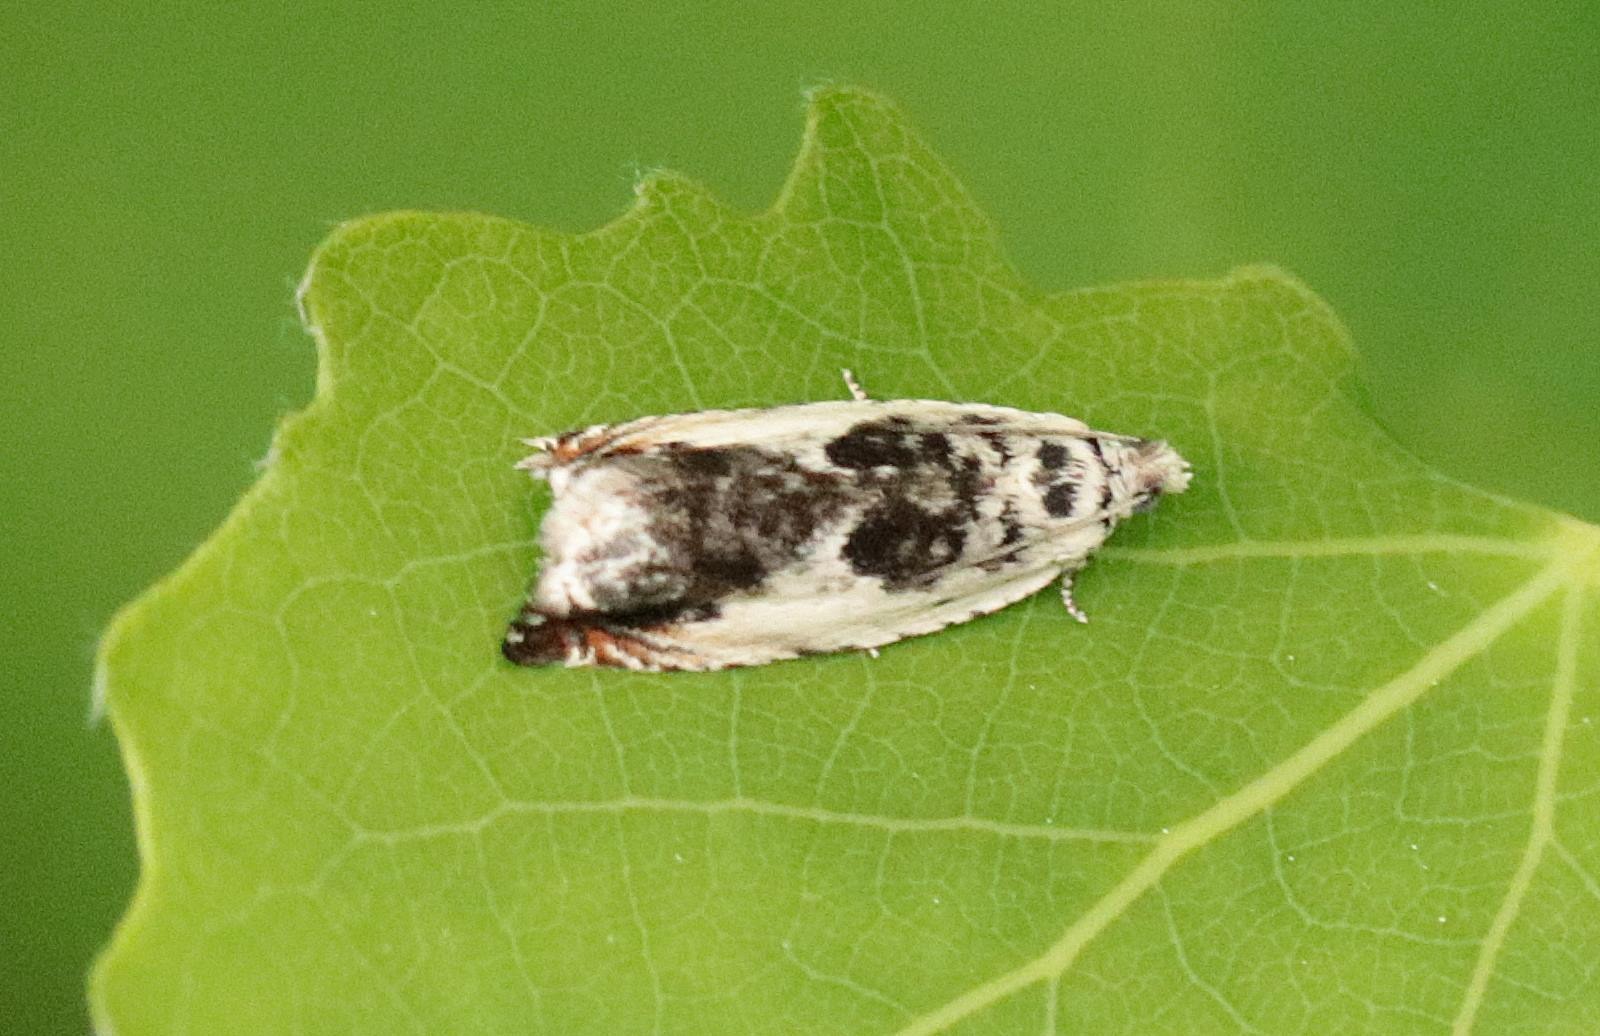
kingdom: Animalia
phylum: Arthropoda
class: Insecta
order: Lepidoptera
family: Tortricidae
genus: Ancylis
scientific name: Ancylis laetana
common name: Aspeseglvikler
